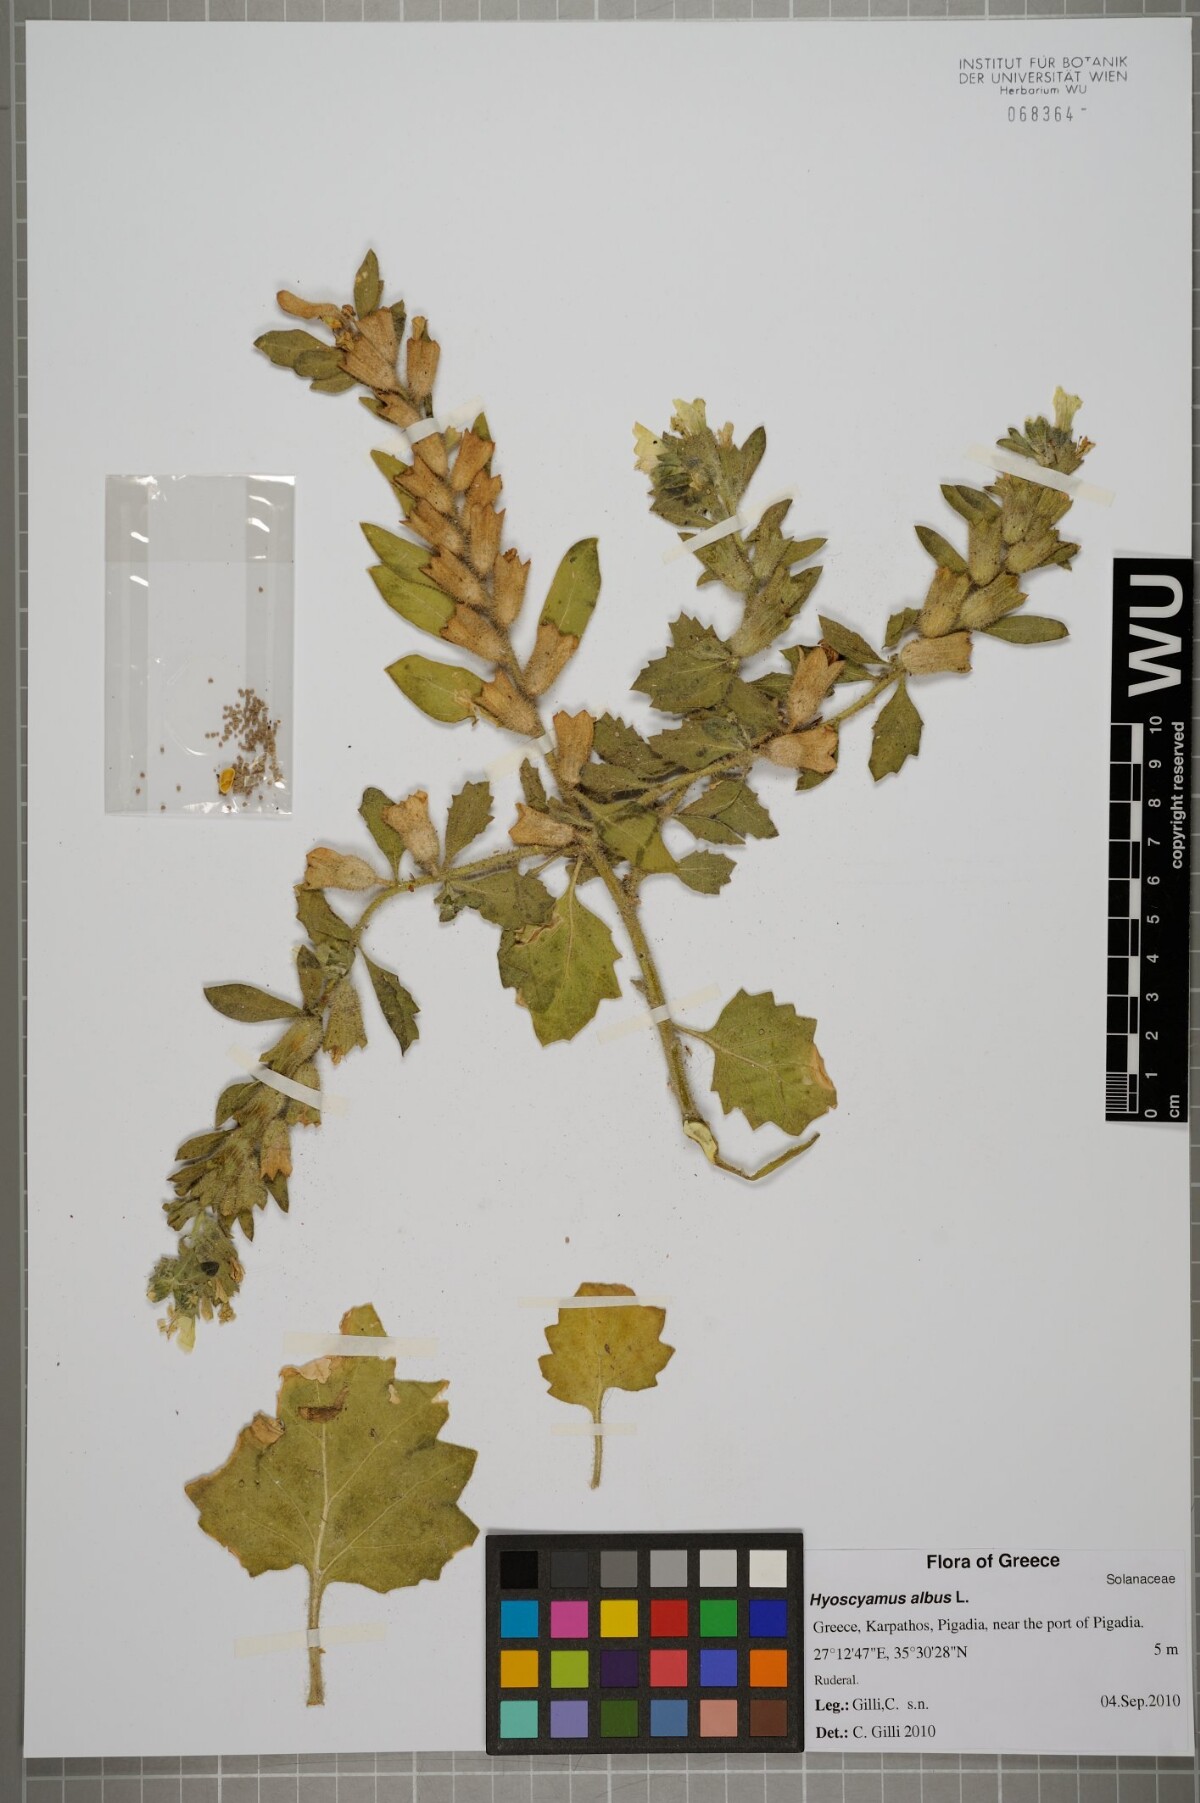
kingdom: Plantae
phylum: Tracheophyta
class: Magnoliopsida
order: Solanales
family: Solanaceae
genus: Hyoscyamus
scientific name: Hyoscyamus albus
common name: White henbane
